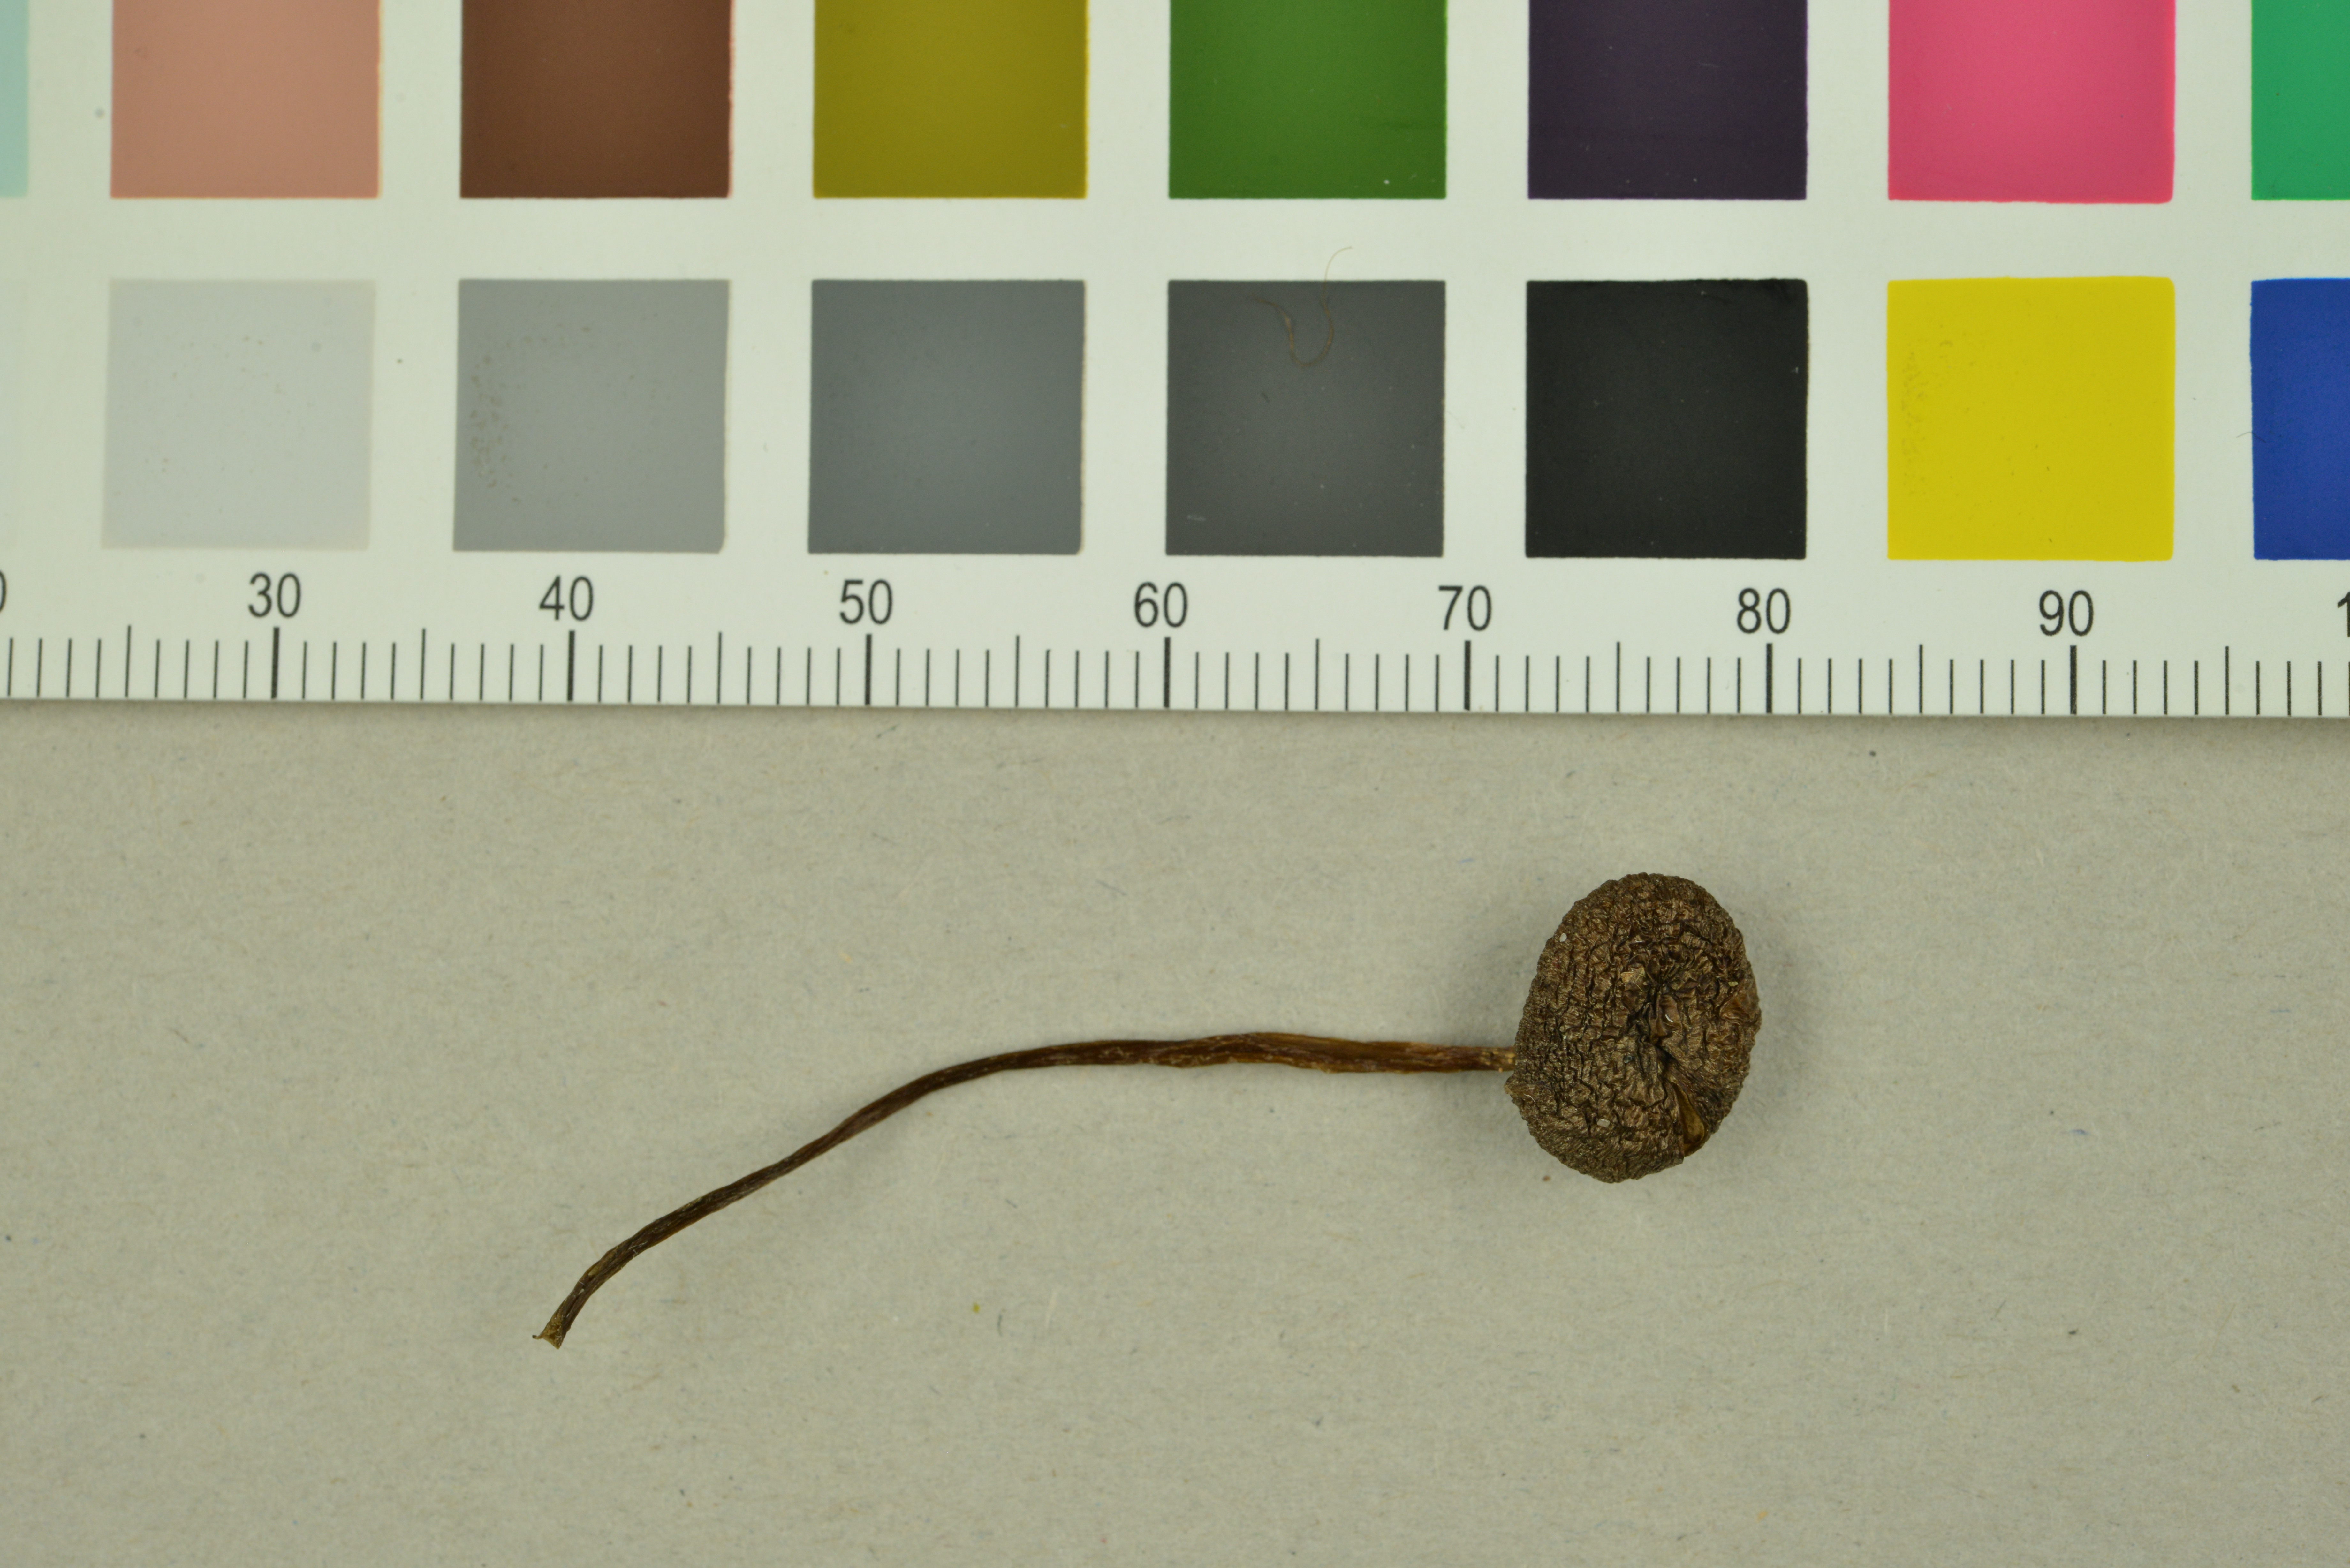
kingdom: Fungi
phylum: Basidiomycota
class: Agaricomycetes
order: Agaricales
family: Entolomataceae
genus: Entoloma
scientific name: Entoloma calaminare
